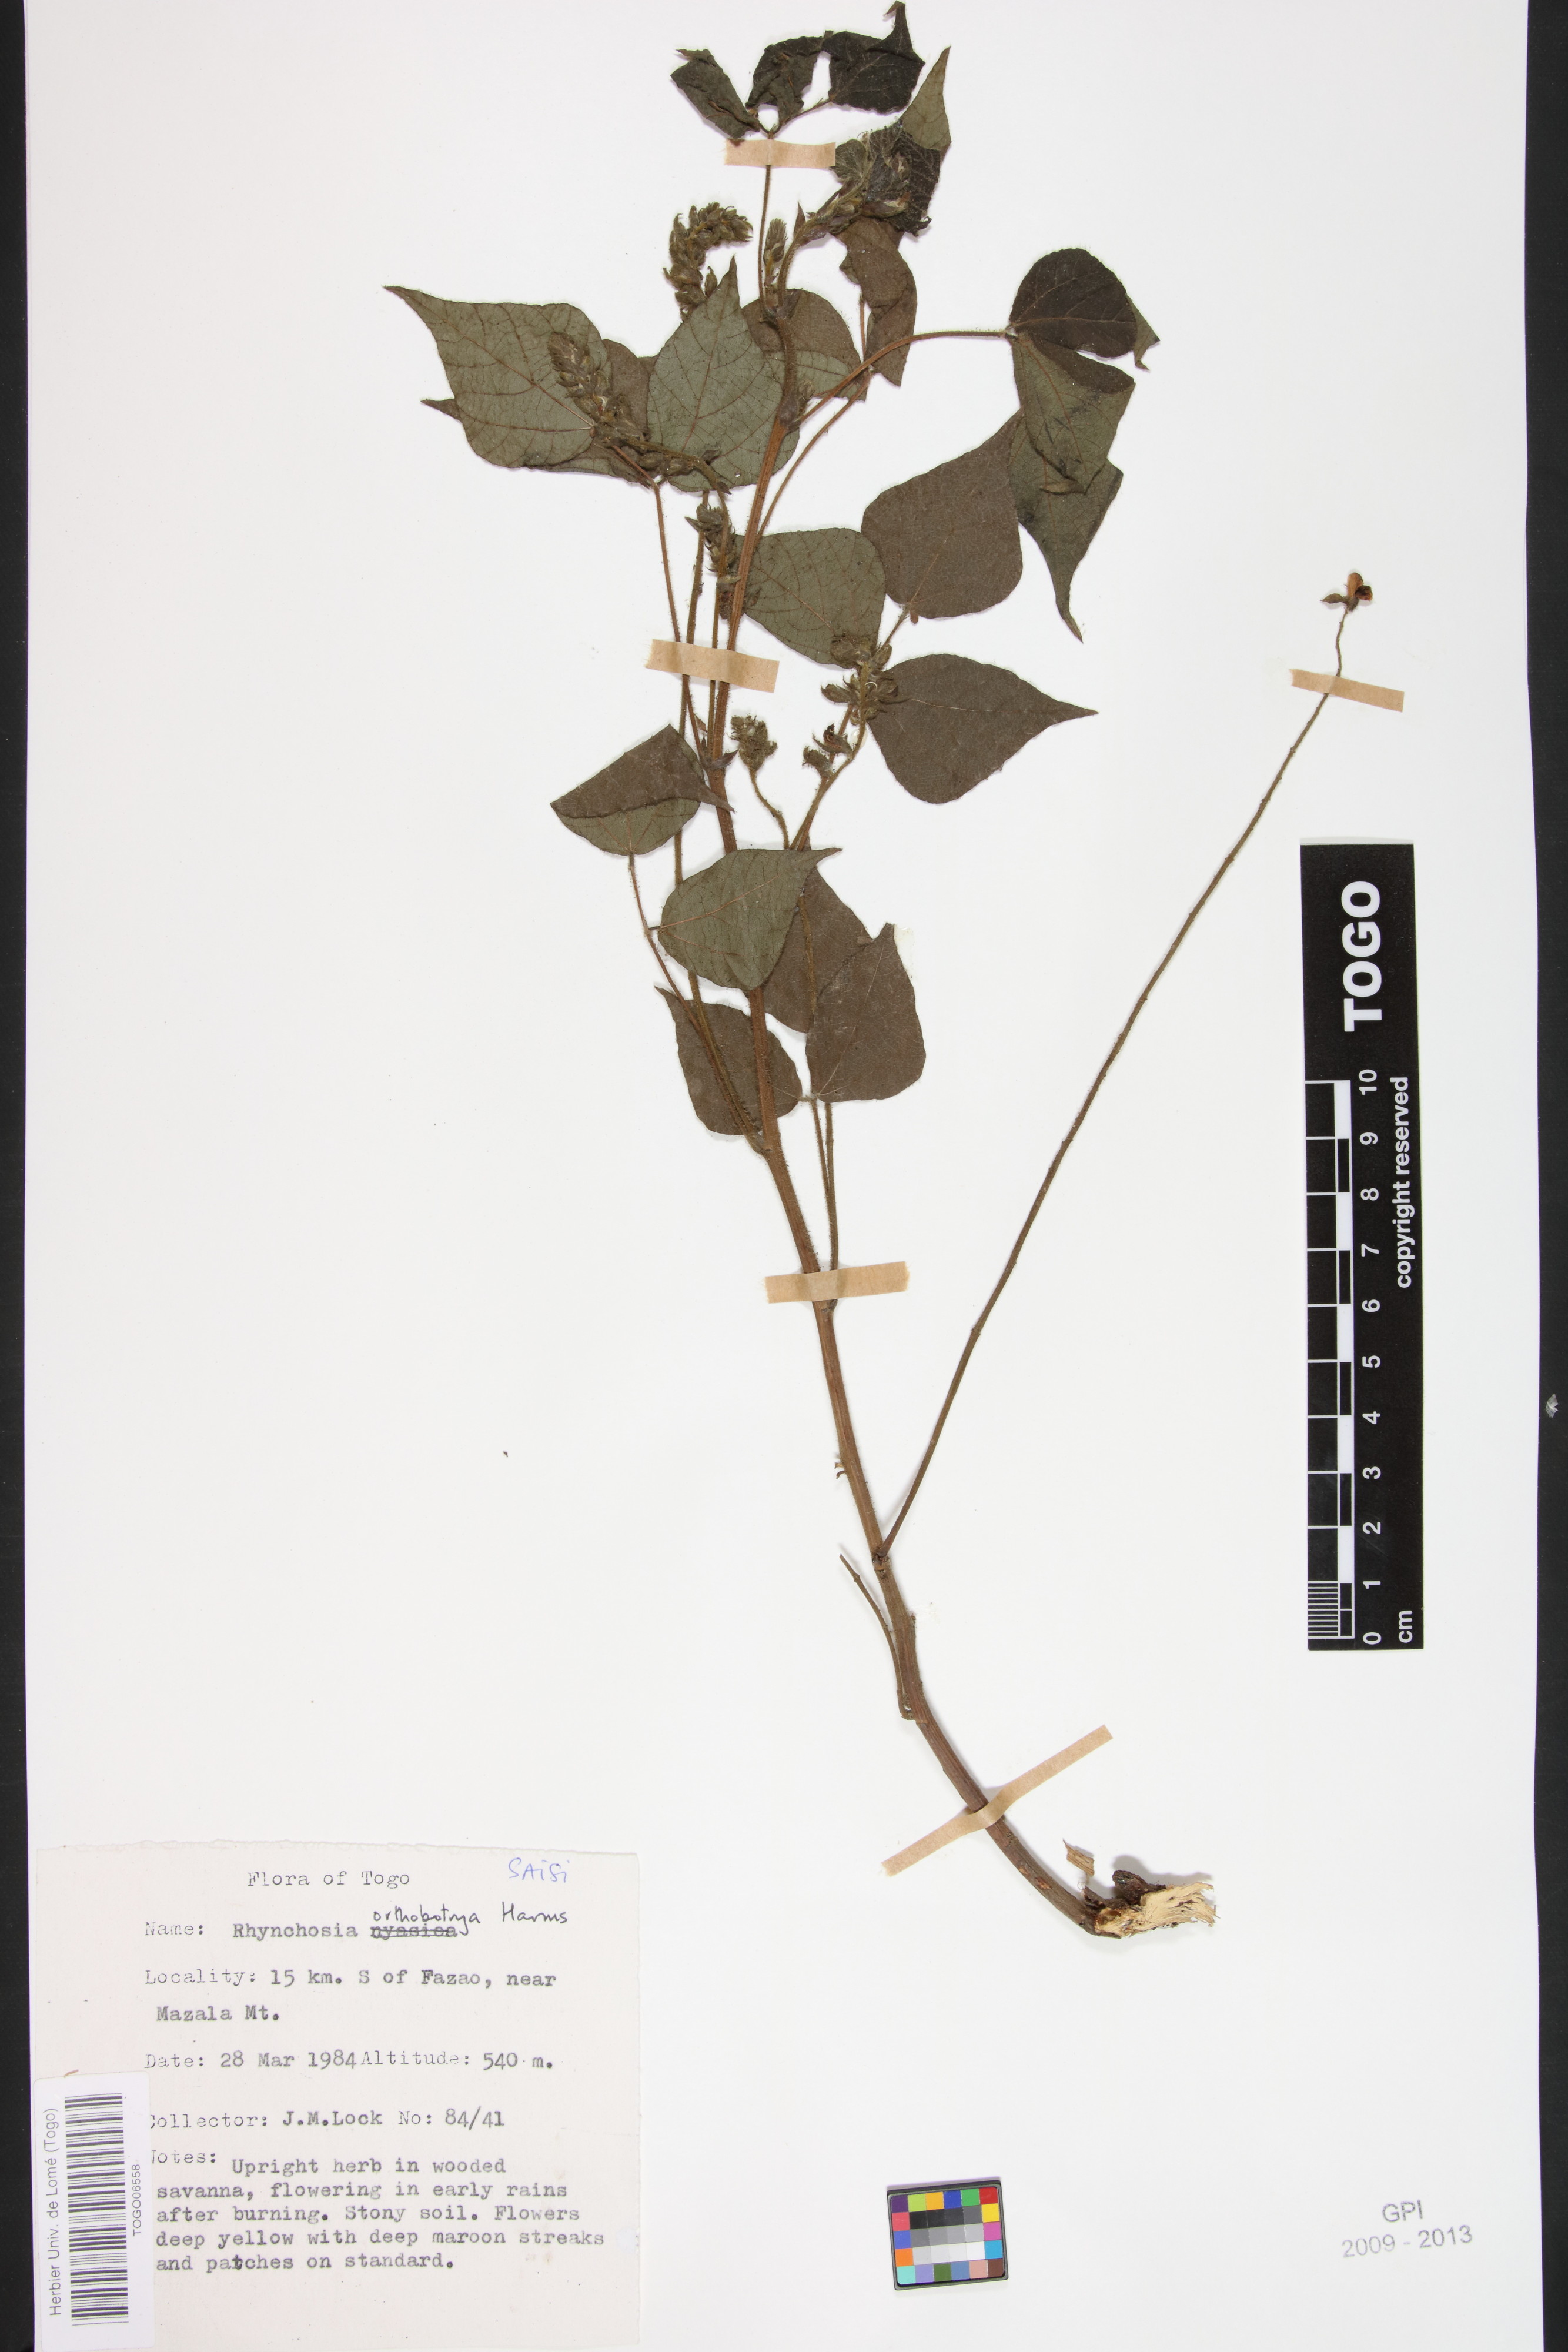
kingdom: Plantae
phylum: Tracheophyta
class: Magnoliopsida
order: Fabales
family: Fabaceae
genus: Rhynchosia
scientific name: Rhynchosia orthobotrya
